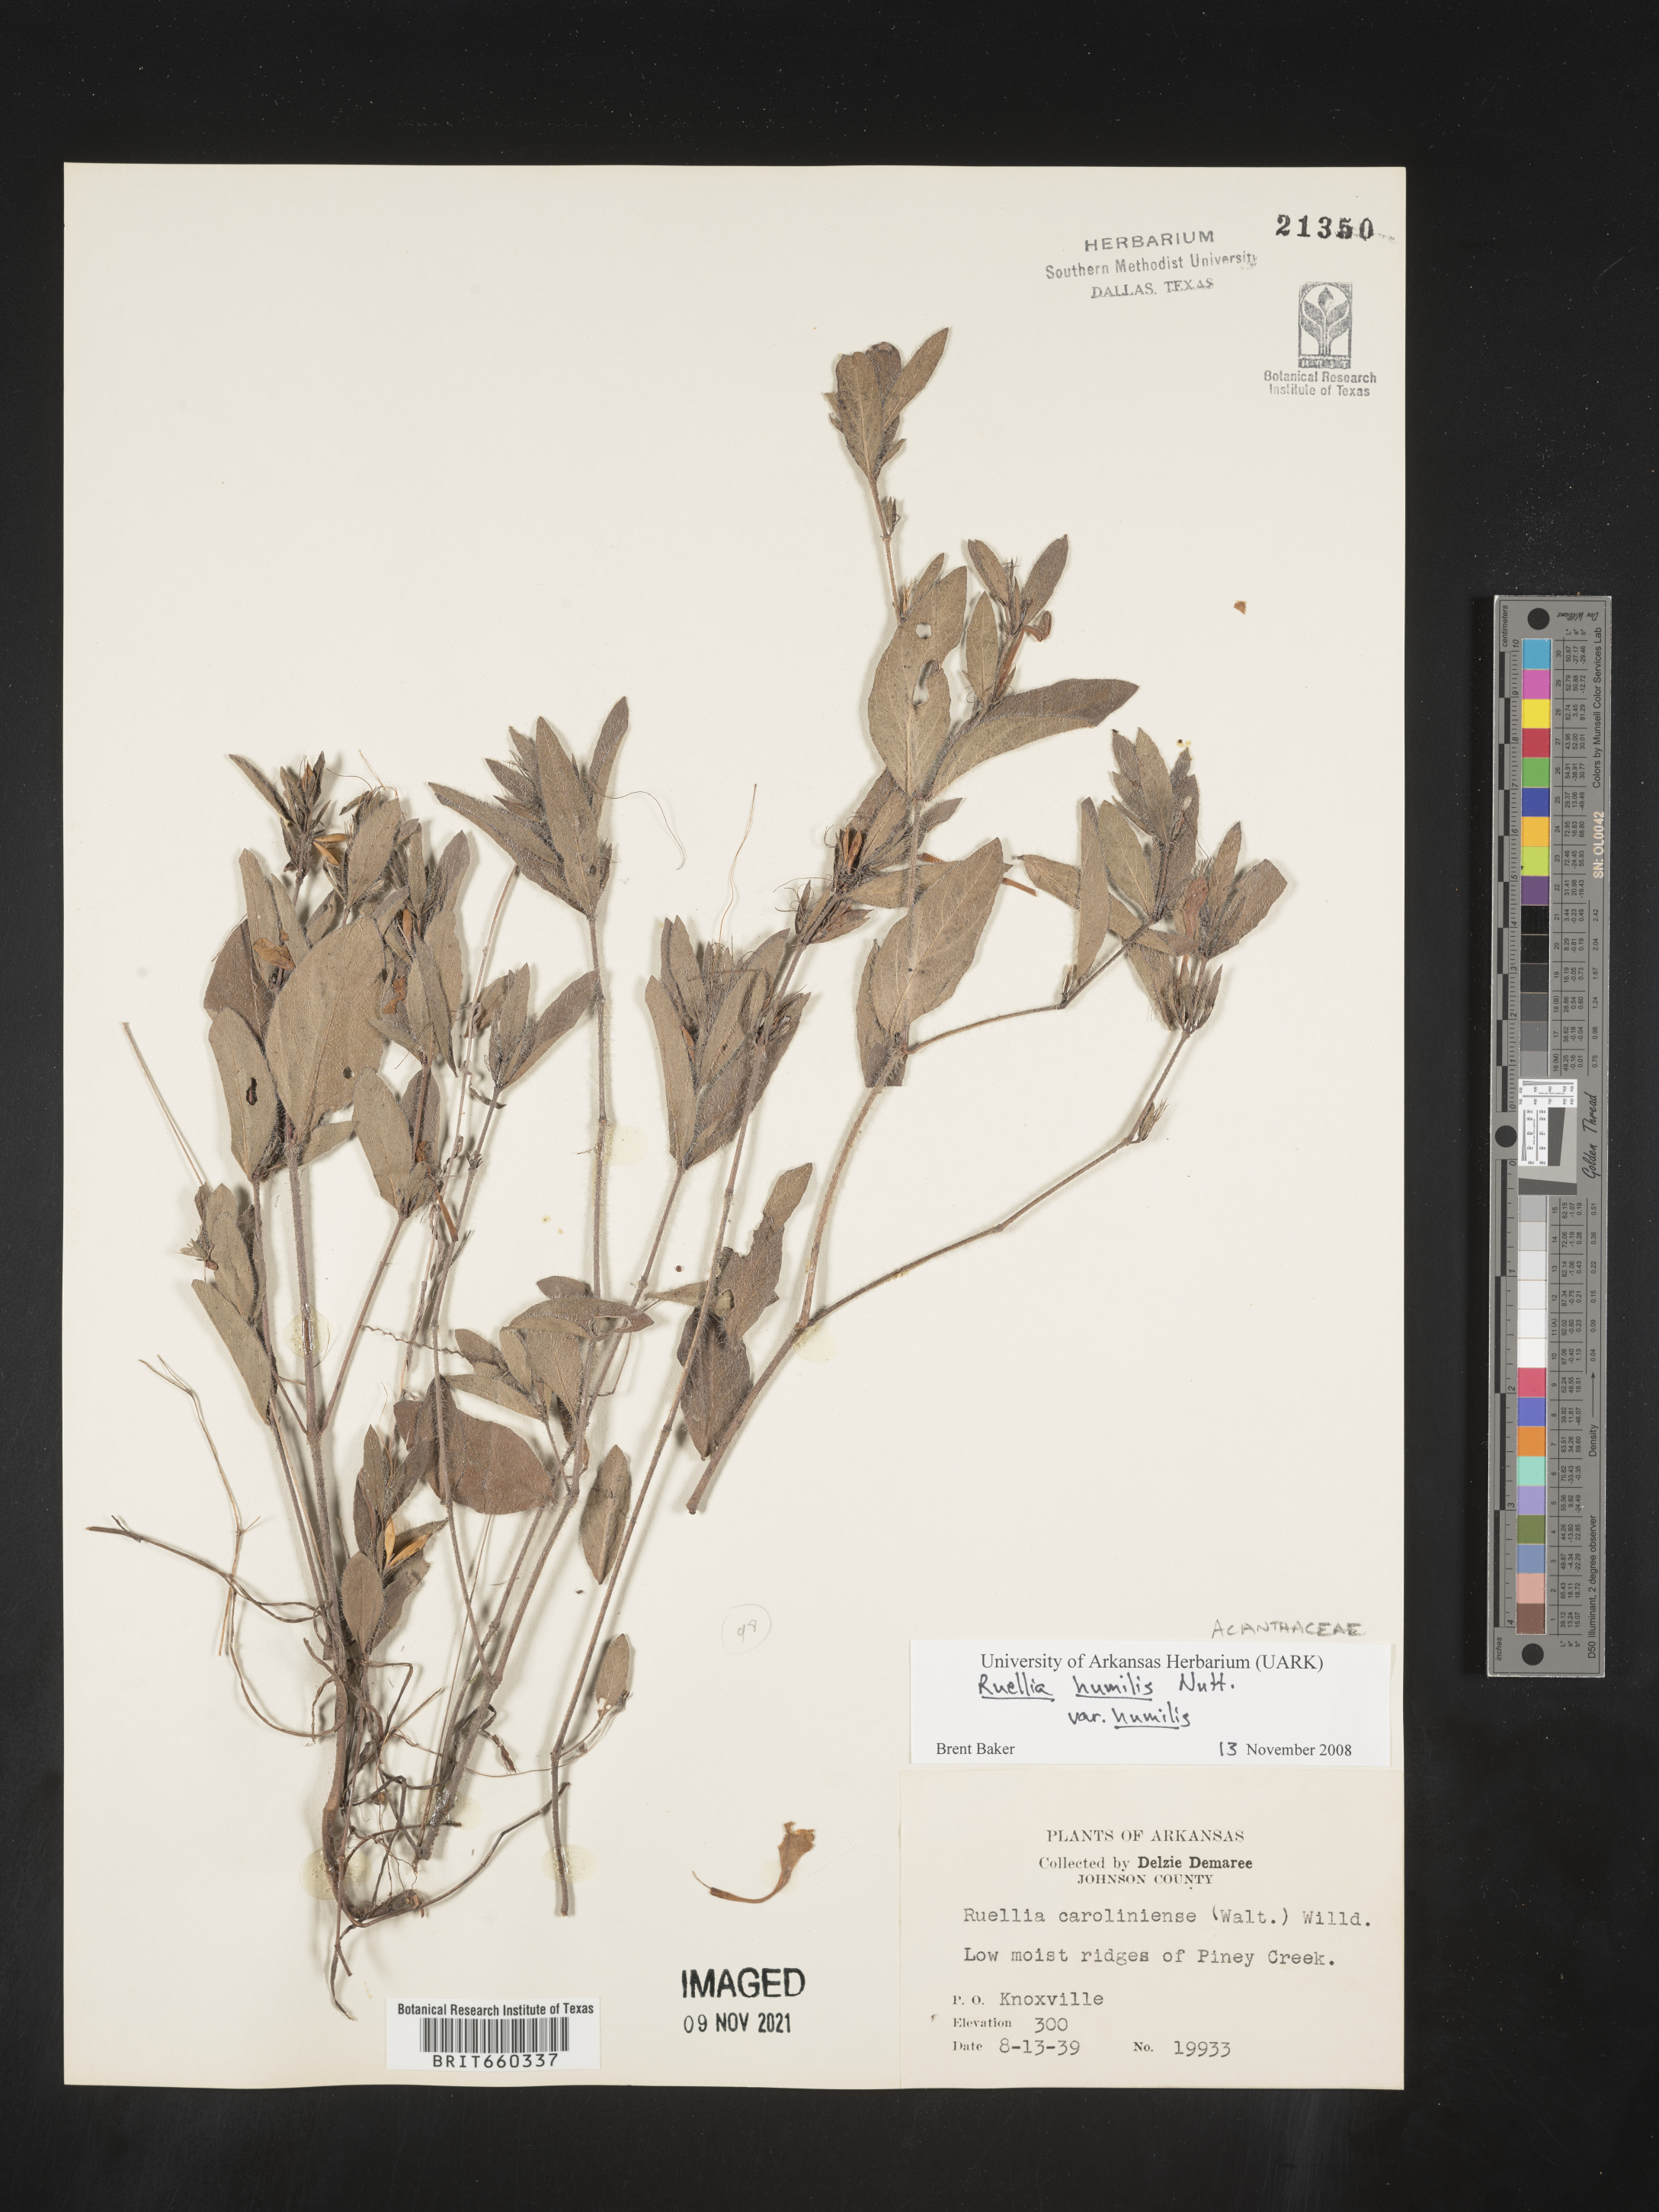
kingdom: Plantae
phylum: Tracheophyta
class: Magnoliopsida
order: Lamiales
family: Acanthaceae
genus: Ruellia
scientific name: Ruellia humilis
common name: Fringe-leaf ruellia
